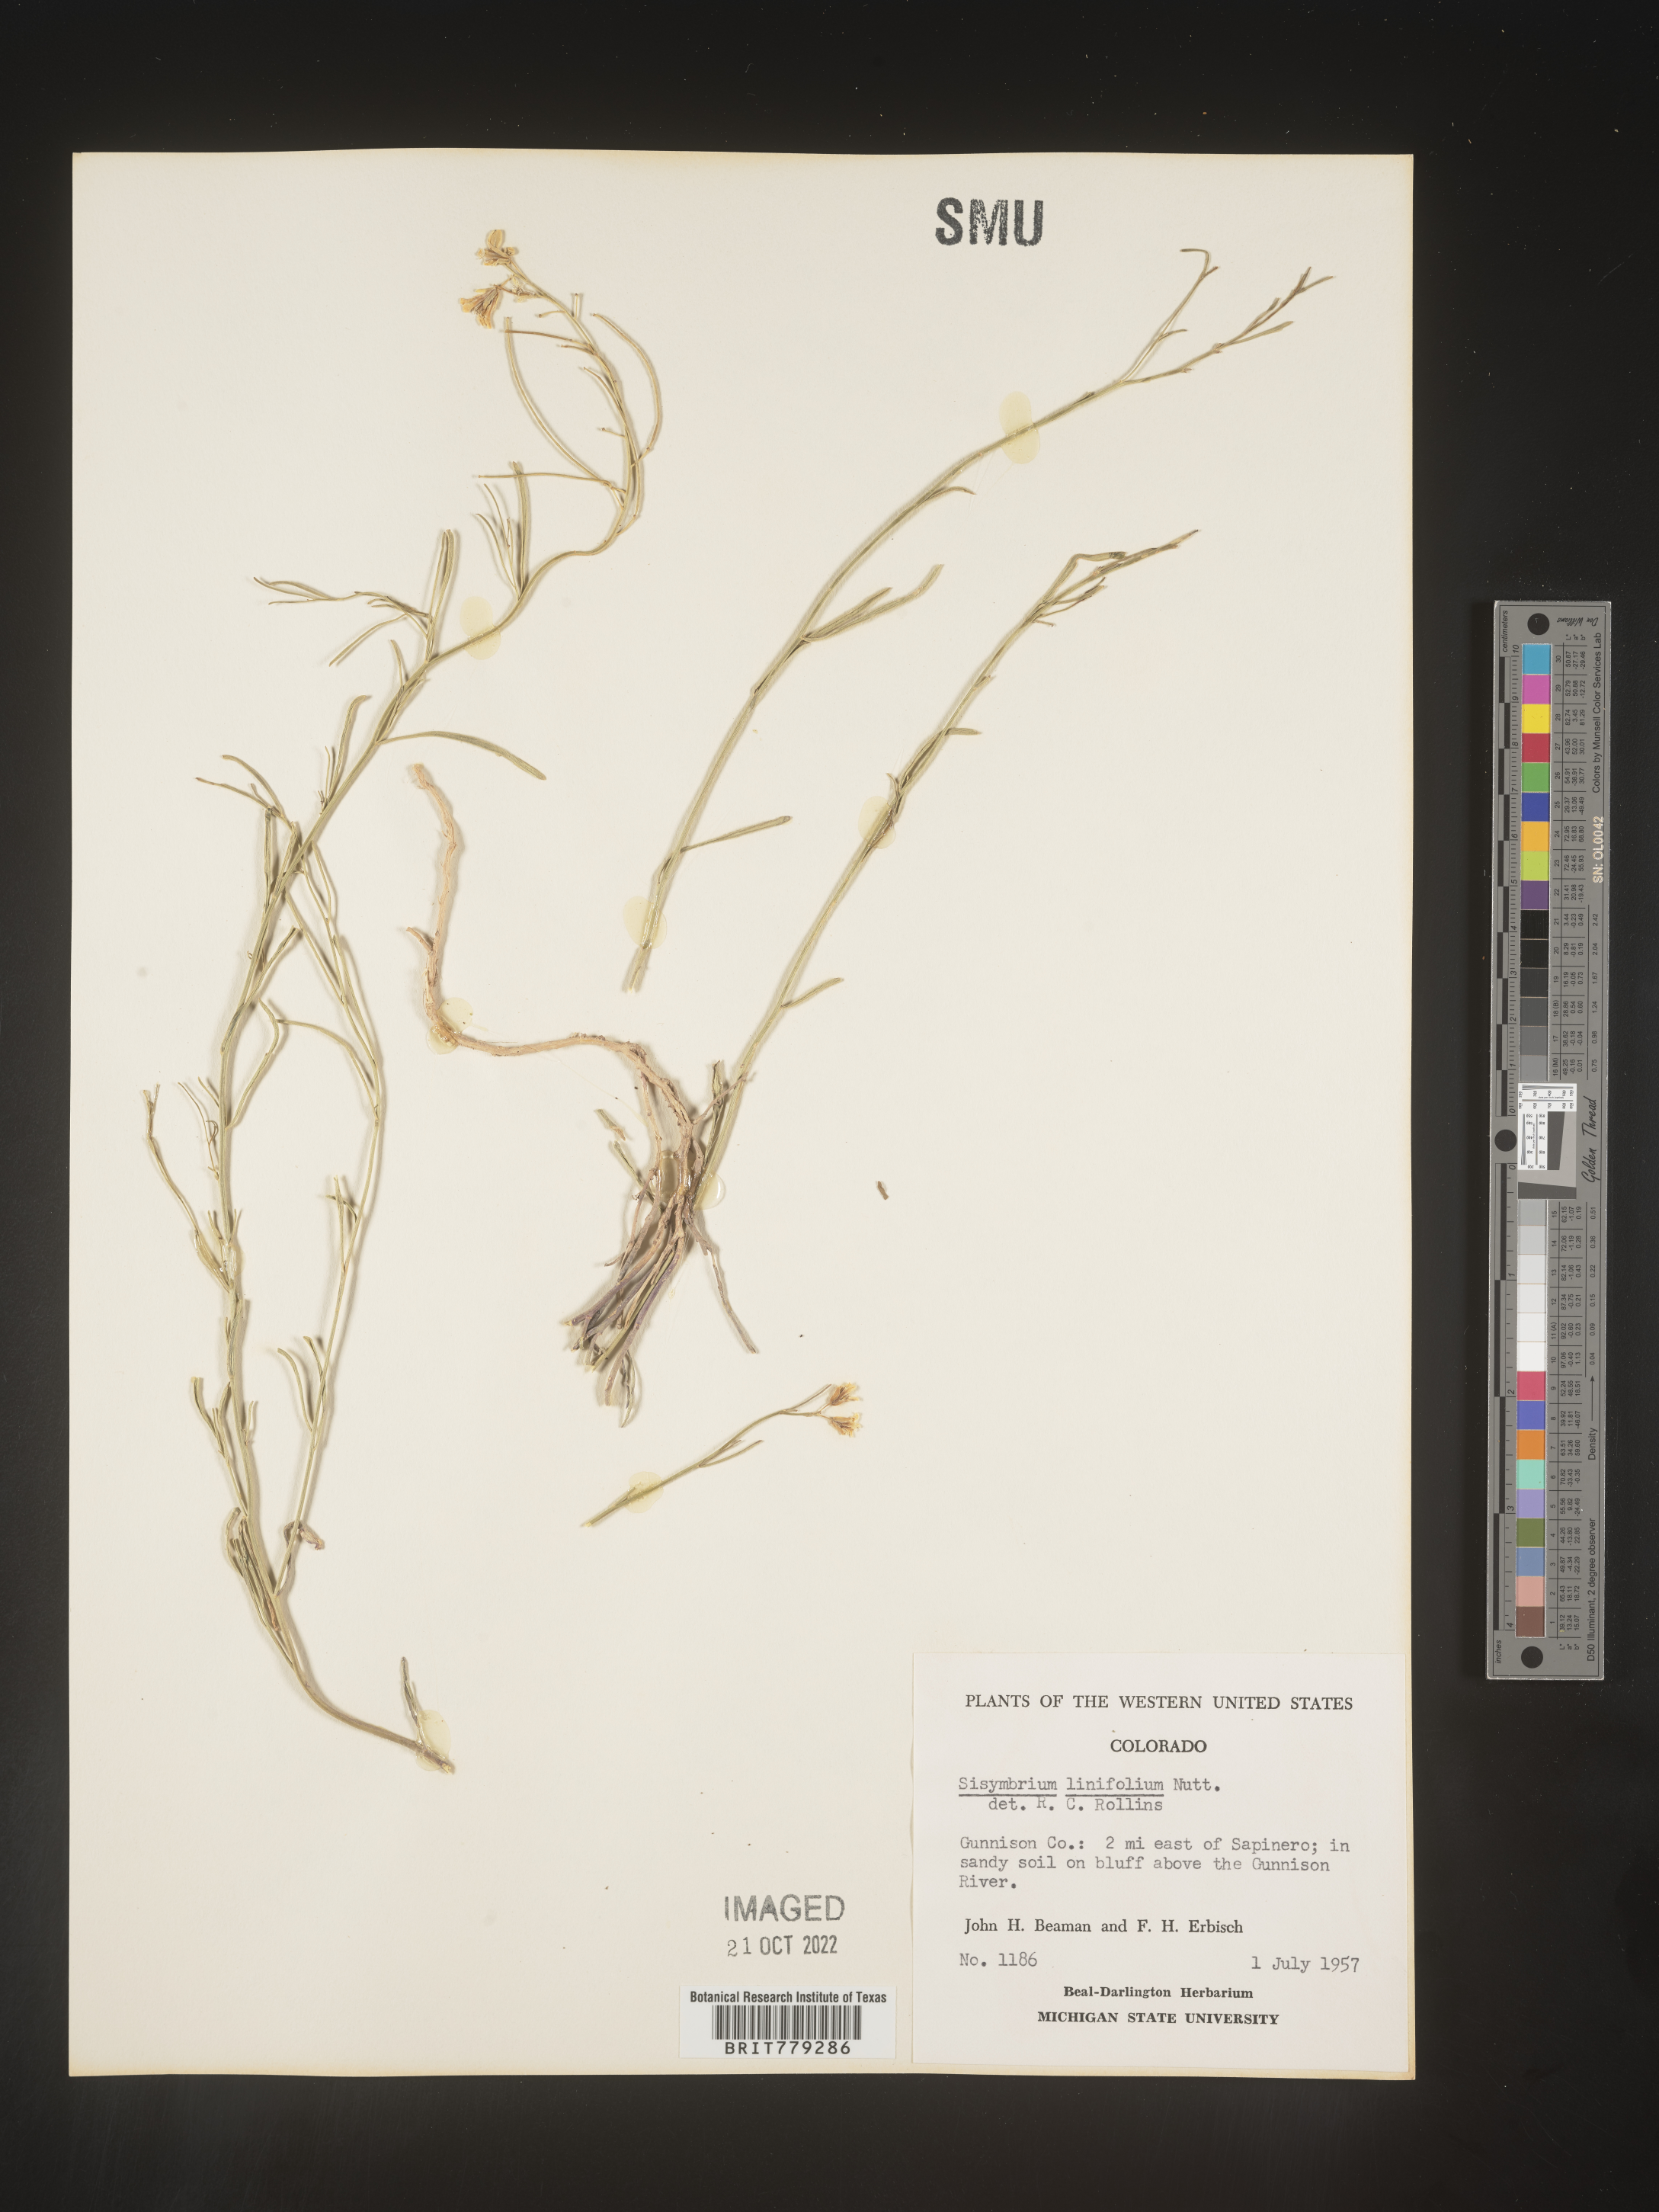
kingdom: Plantae
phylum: Tracheophyta
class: Magnoliopsida
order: Brassicales
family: Brassicaceae
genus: Sisymbrium
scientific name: Sisymbrium
